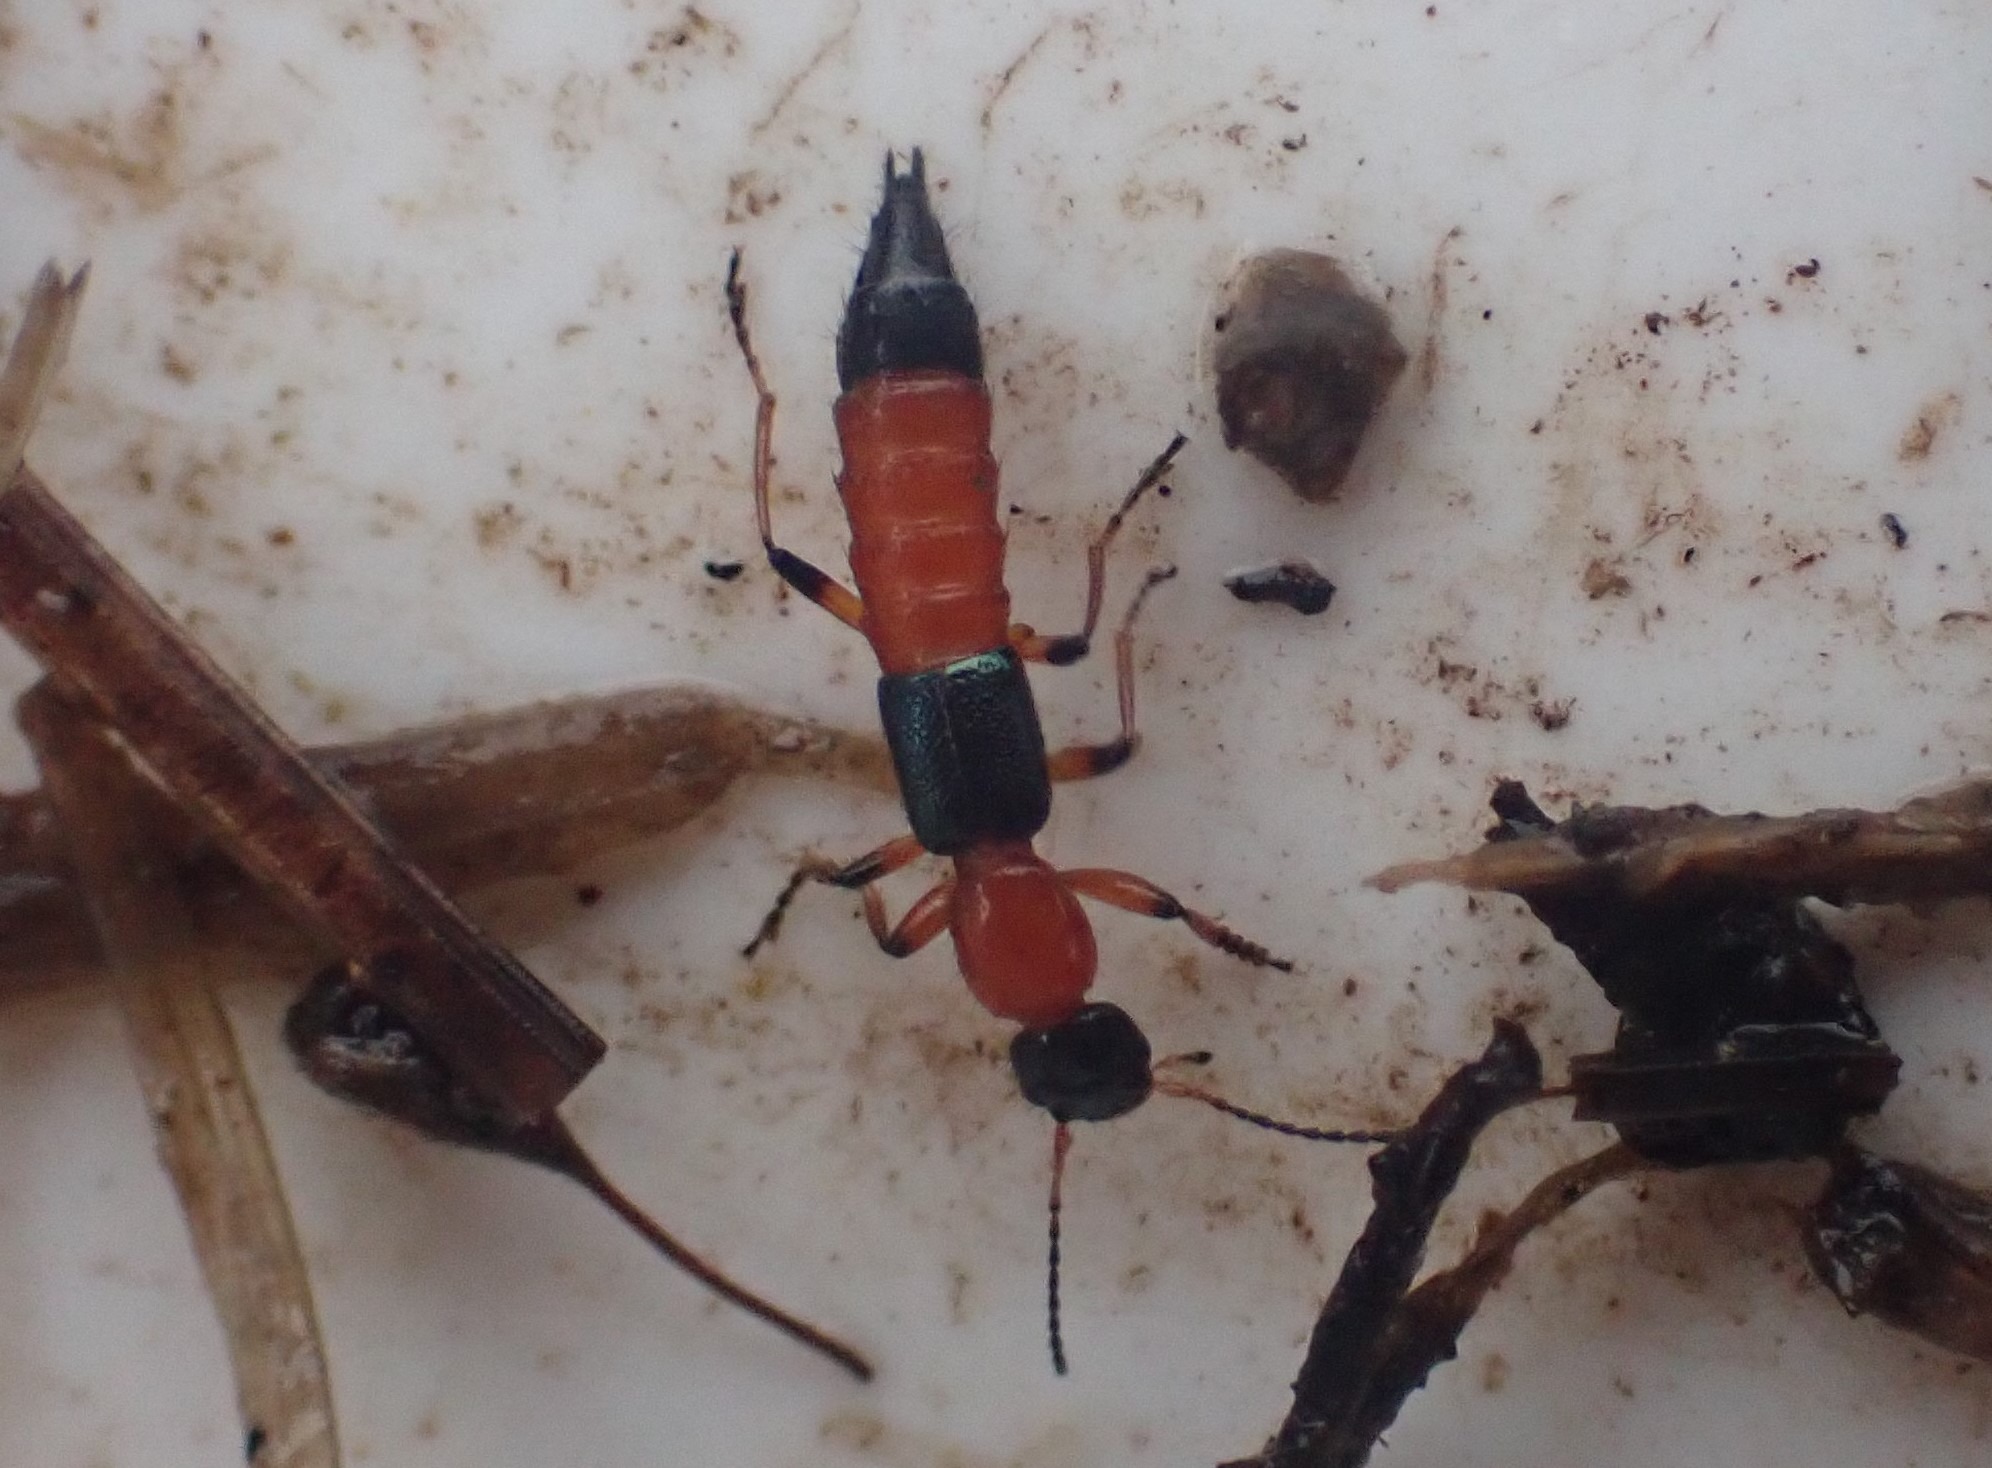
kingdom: Animalia
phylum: Arthropoda
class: Insecta
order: Coleoptera
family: Staphylinidae
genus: Paederus
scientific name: Paederus riparius
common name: Giftig rovbille
